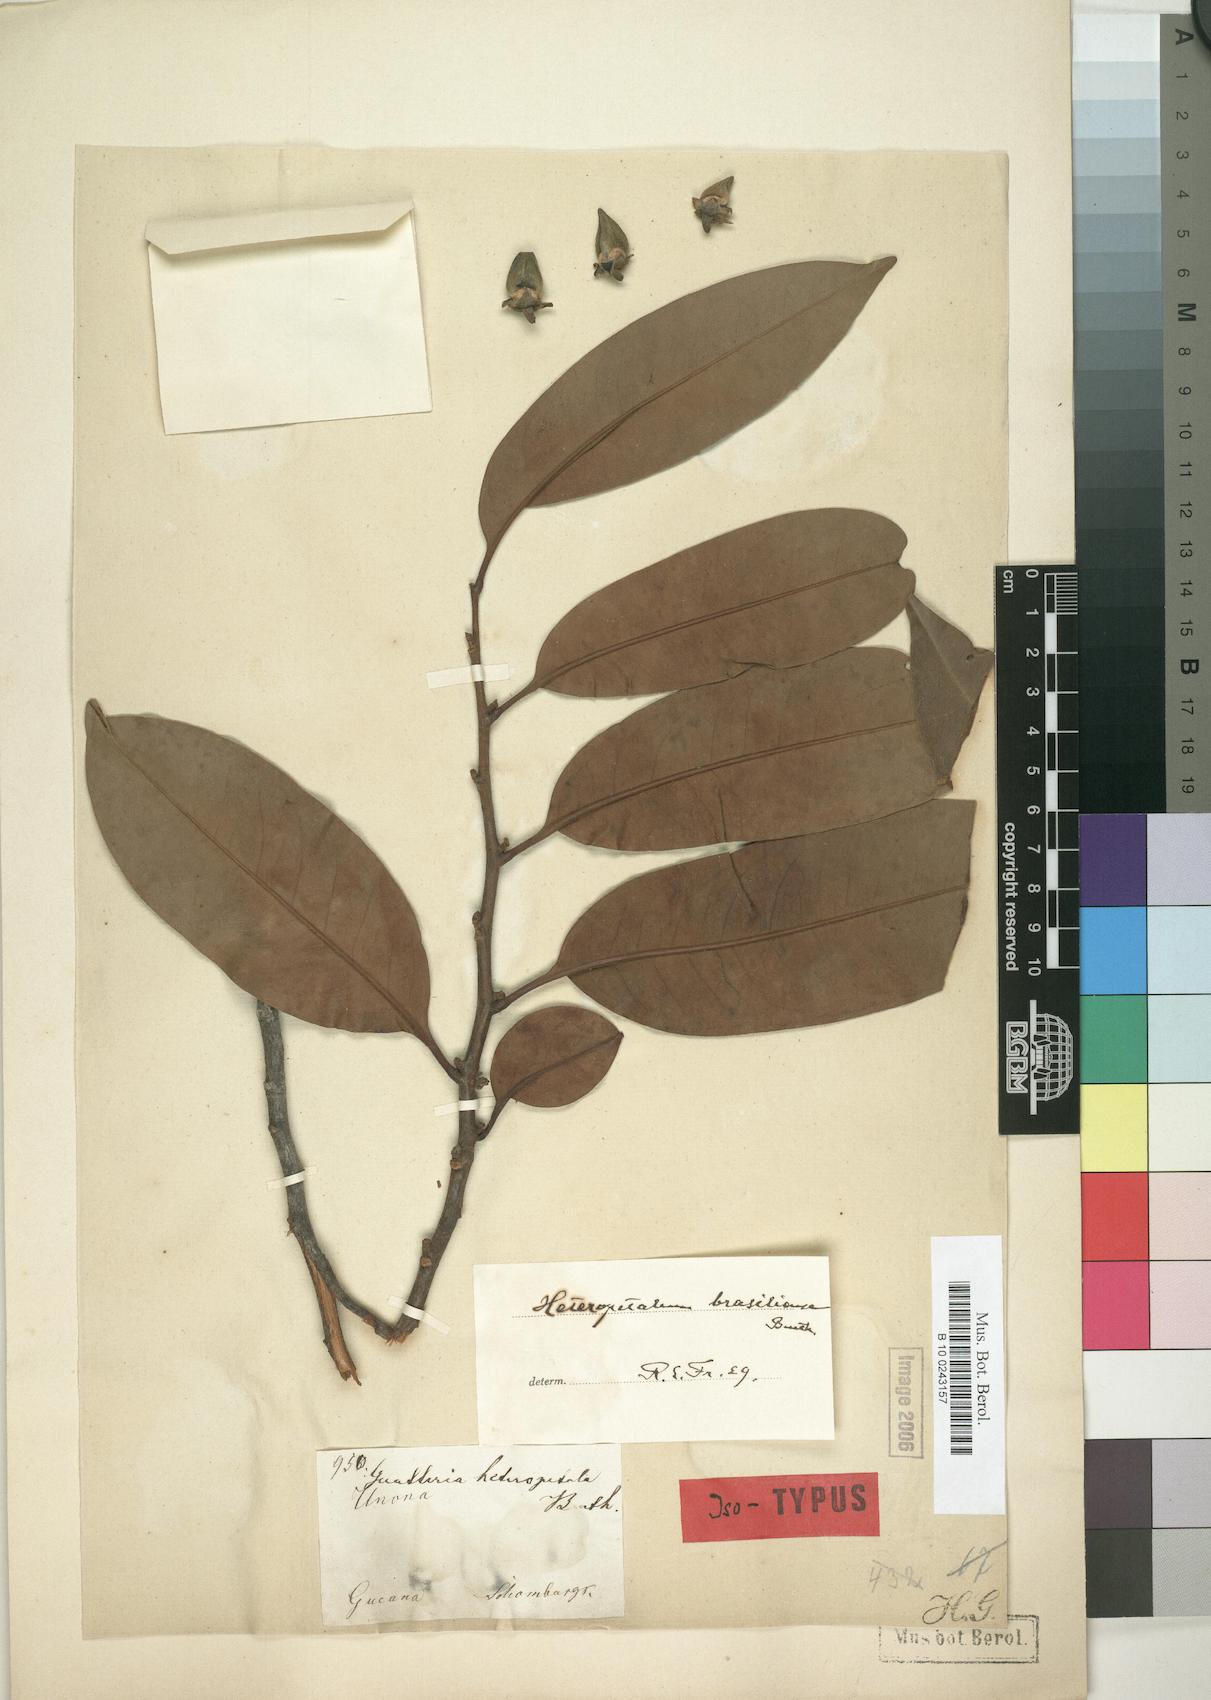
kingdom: Plantae
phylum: Tracheophyta
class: Magnoliopsida
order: Magnoliales
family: Annonaceae
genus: Guatteria
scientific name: Guatteria heteropetala
